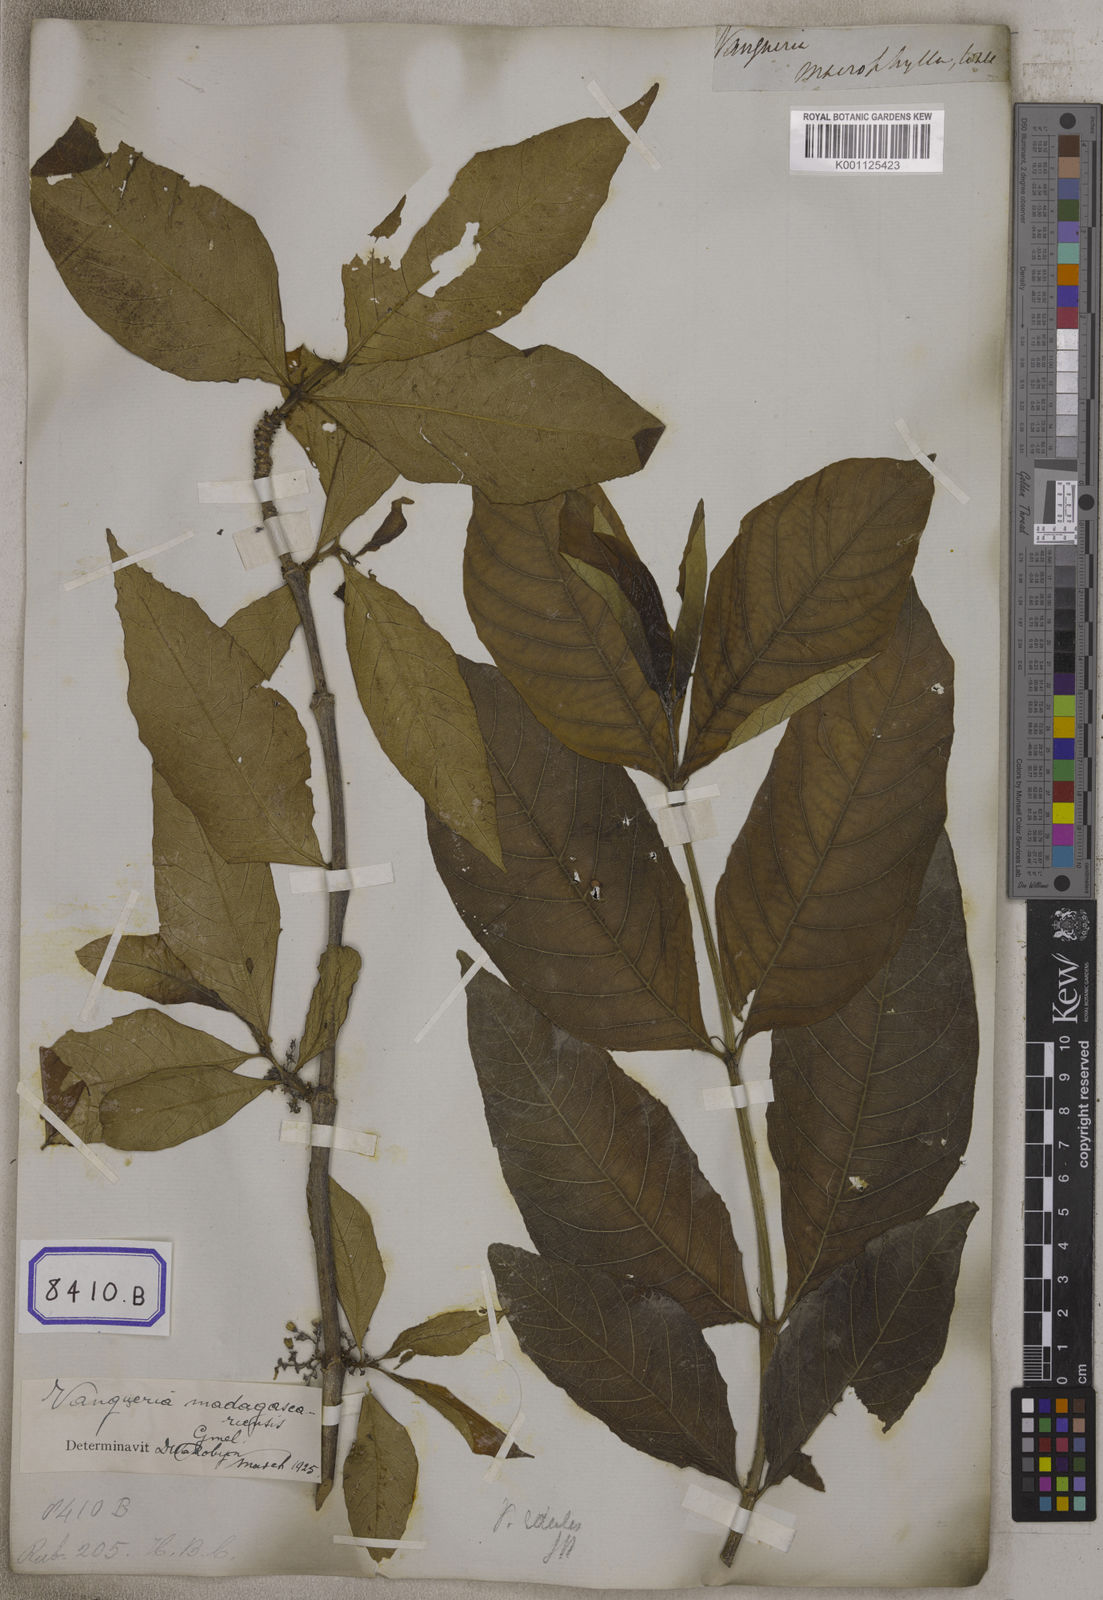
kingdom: Plantae
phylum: Tracheophyta
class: Magnoliopsida
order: Gentianales
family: Rubiaceae
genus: Vangueria
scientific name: Vangueria madagascariensis
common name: Smooth wild-medlar
